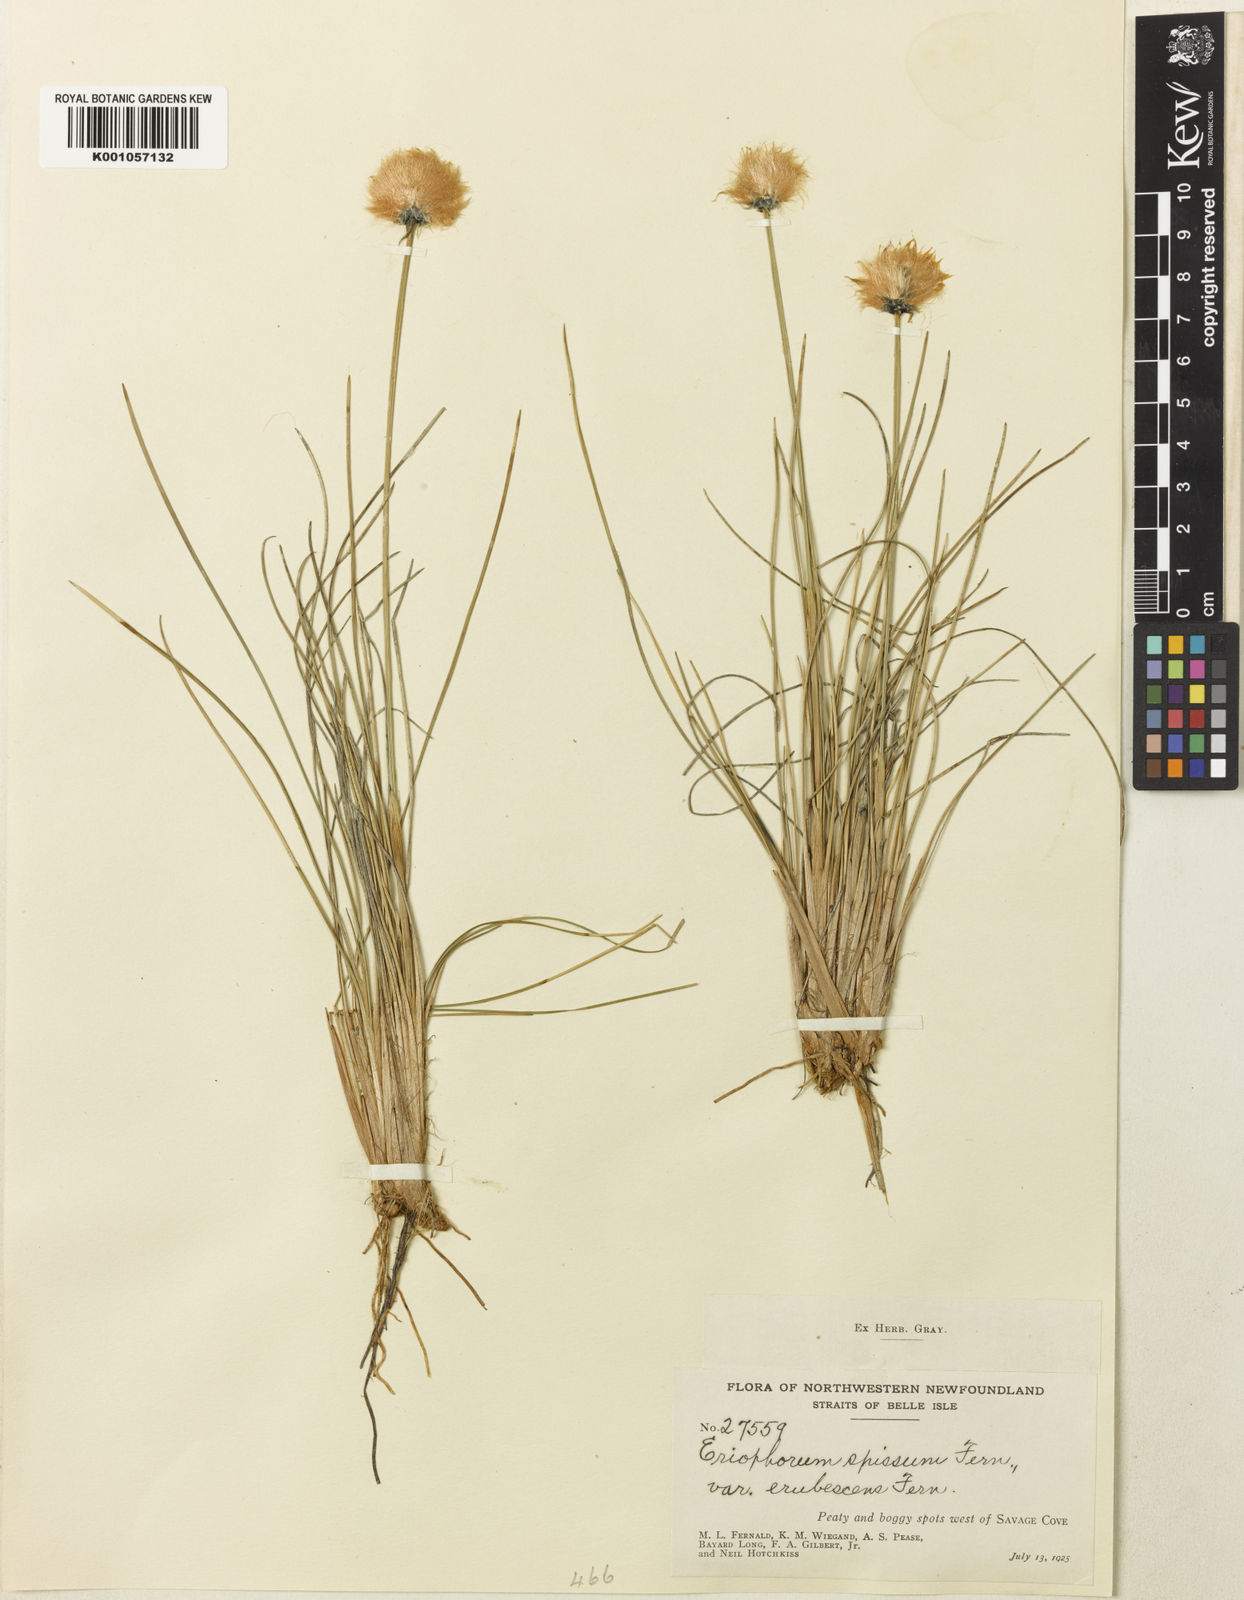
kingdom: Plantae
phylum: Tracheophyta
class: Liliopsida
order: Poales
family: Cyperaceae
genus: Eriophorum
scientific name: Eriophorum vaginatum
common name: Hare's-tail cottongrass
